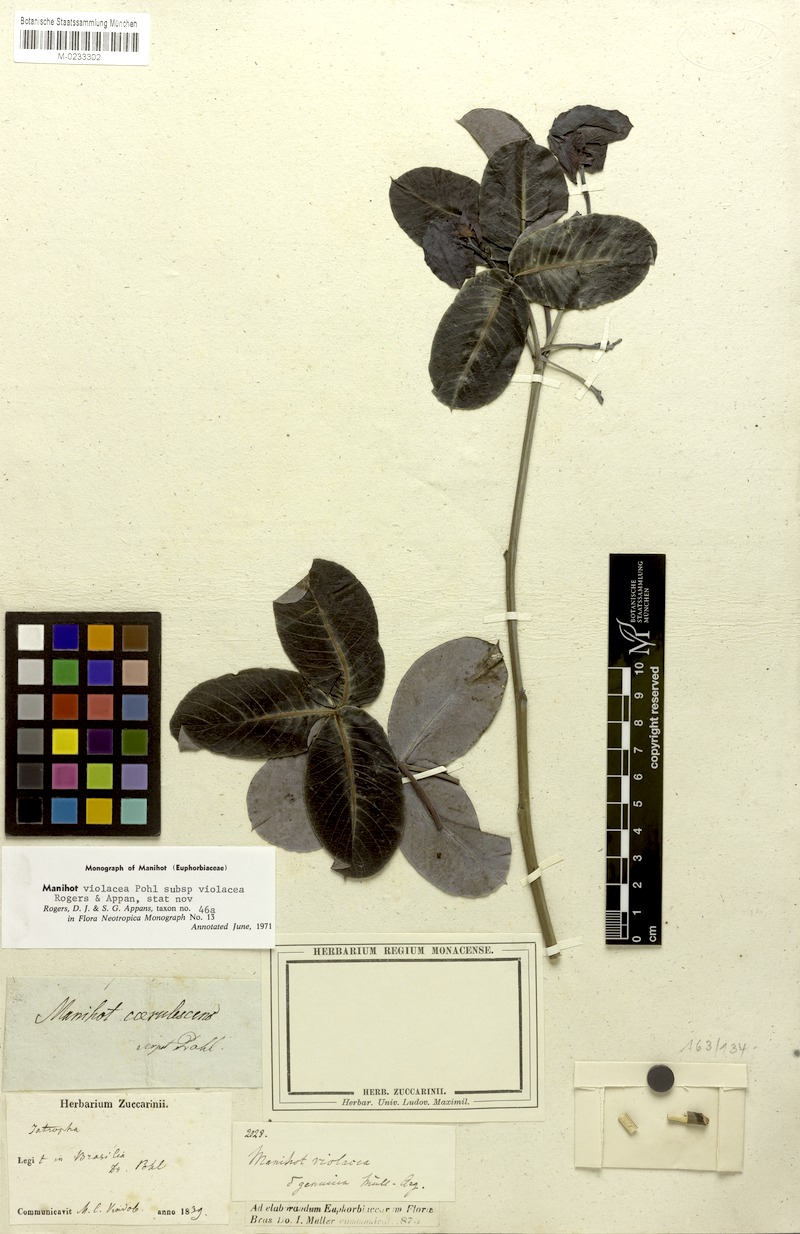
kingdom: Plantae
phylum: Tracheophyta
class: Magnoliopsida
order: Malpighiales
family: Euphorbiaceae
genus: Manihot
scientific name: Manihot violacea
